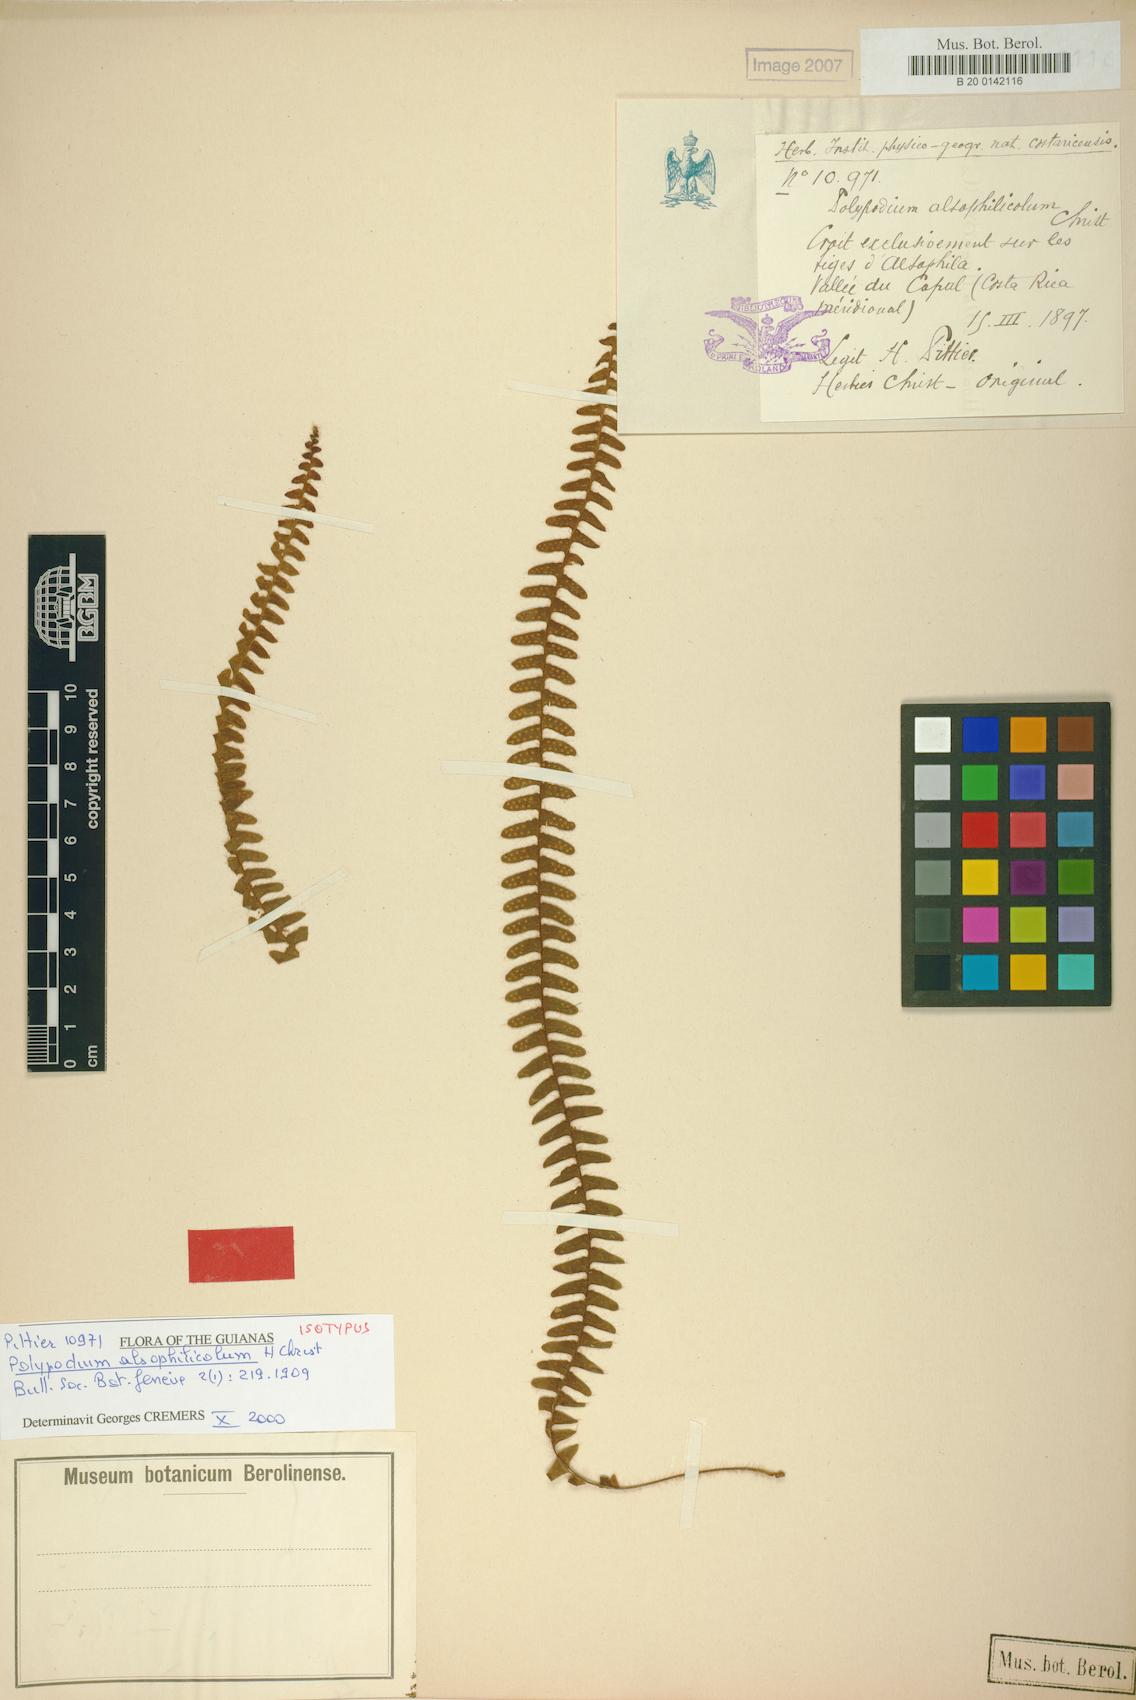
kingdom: Plantae
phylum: Tracheophyta
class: Polypodiopsida
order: Polypodiales
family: Polypodiaceae
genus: Terpsichore
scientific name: Terpsichore alsophilicola
